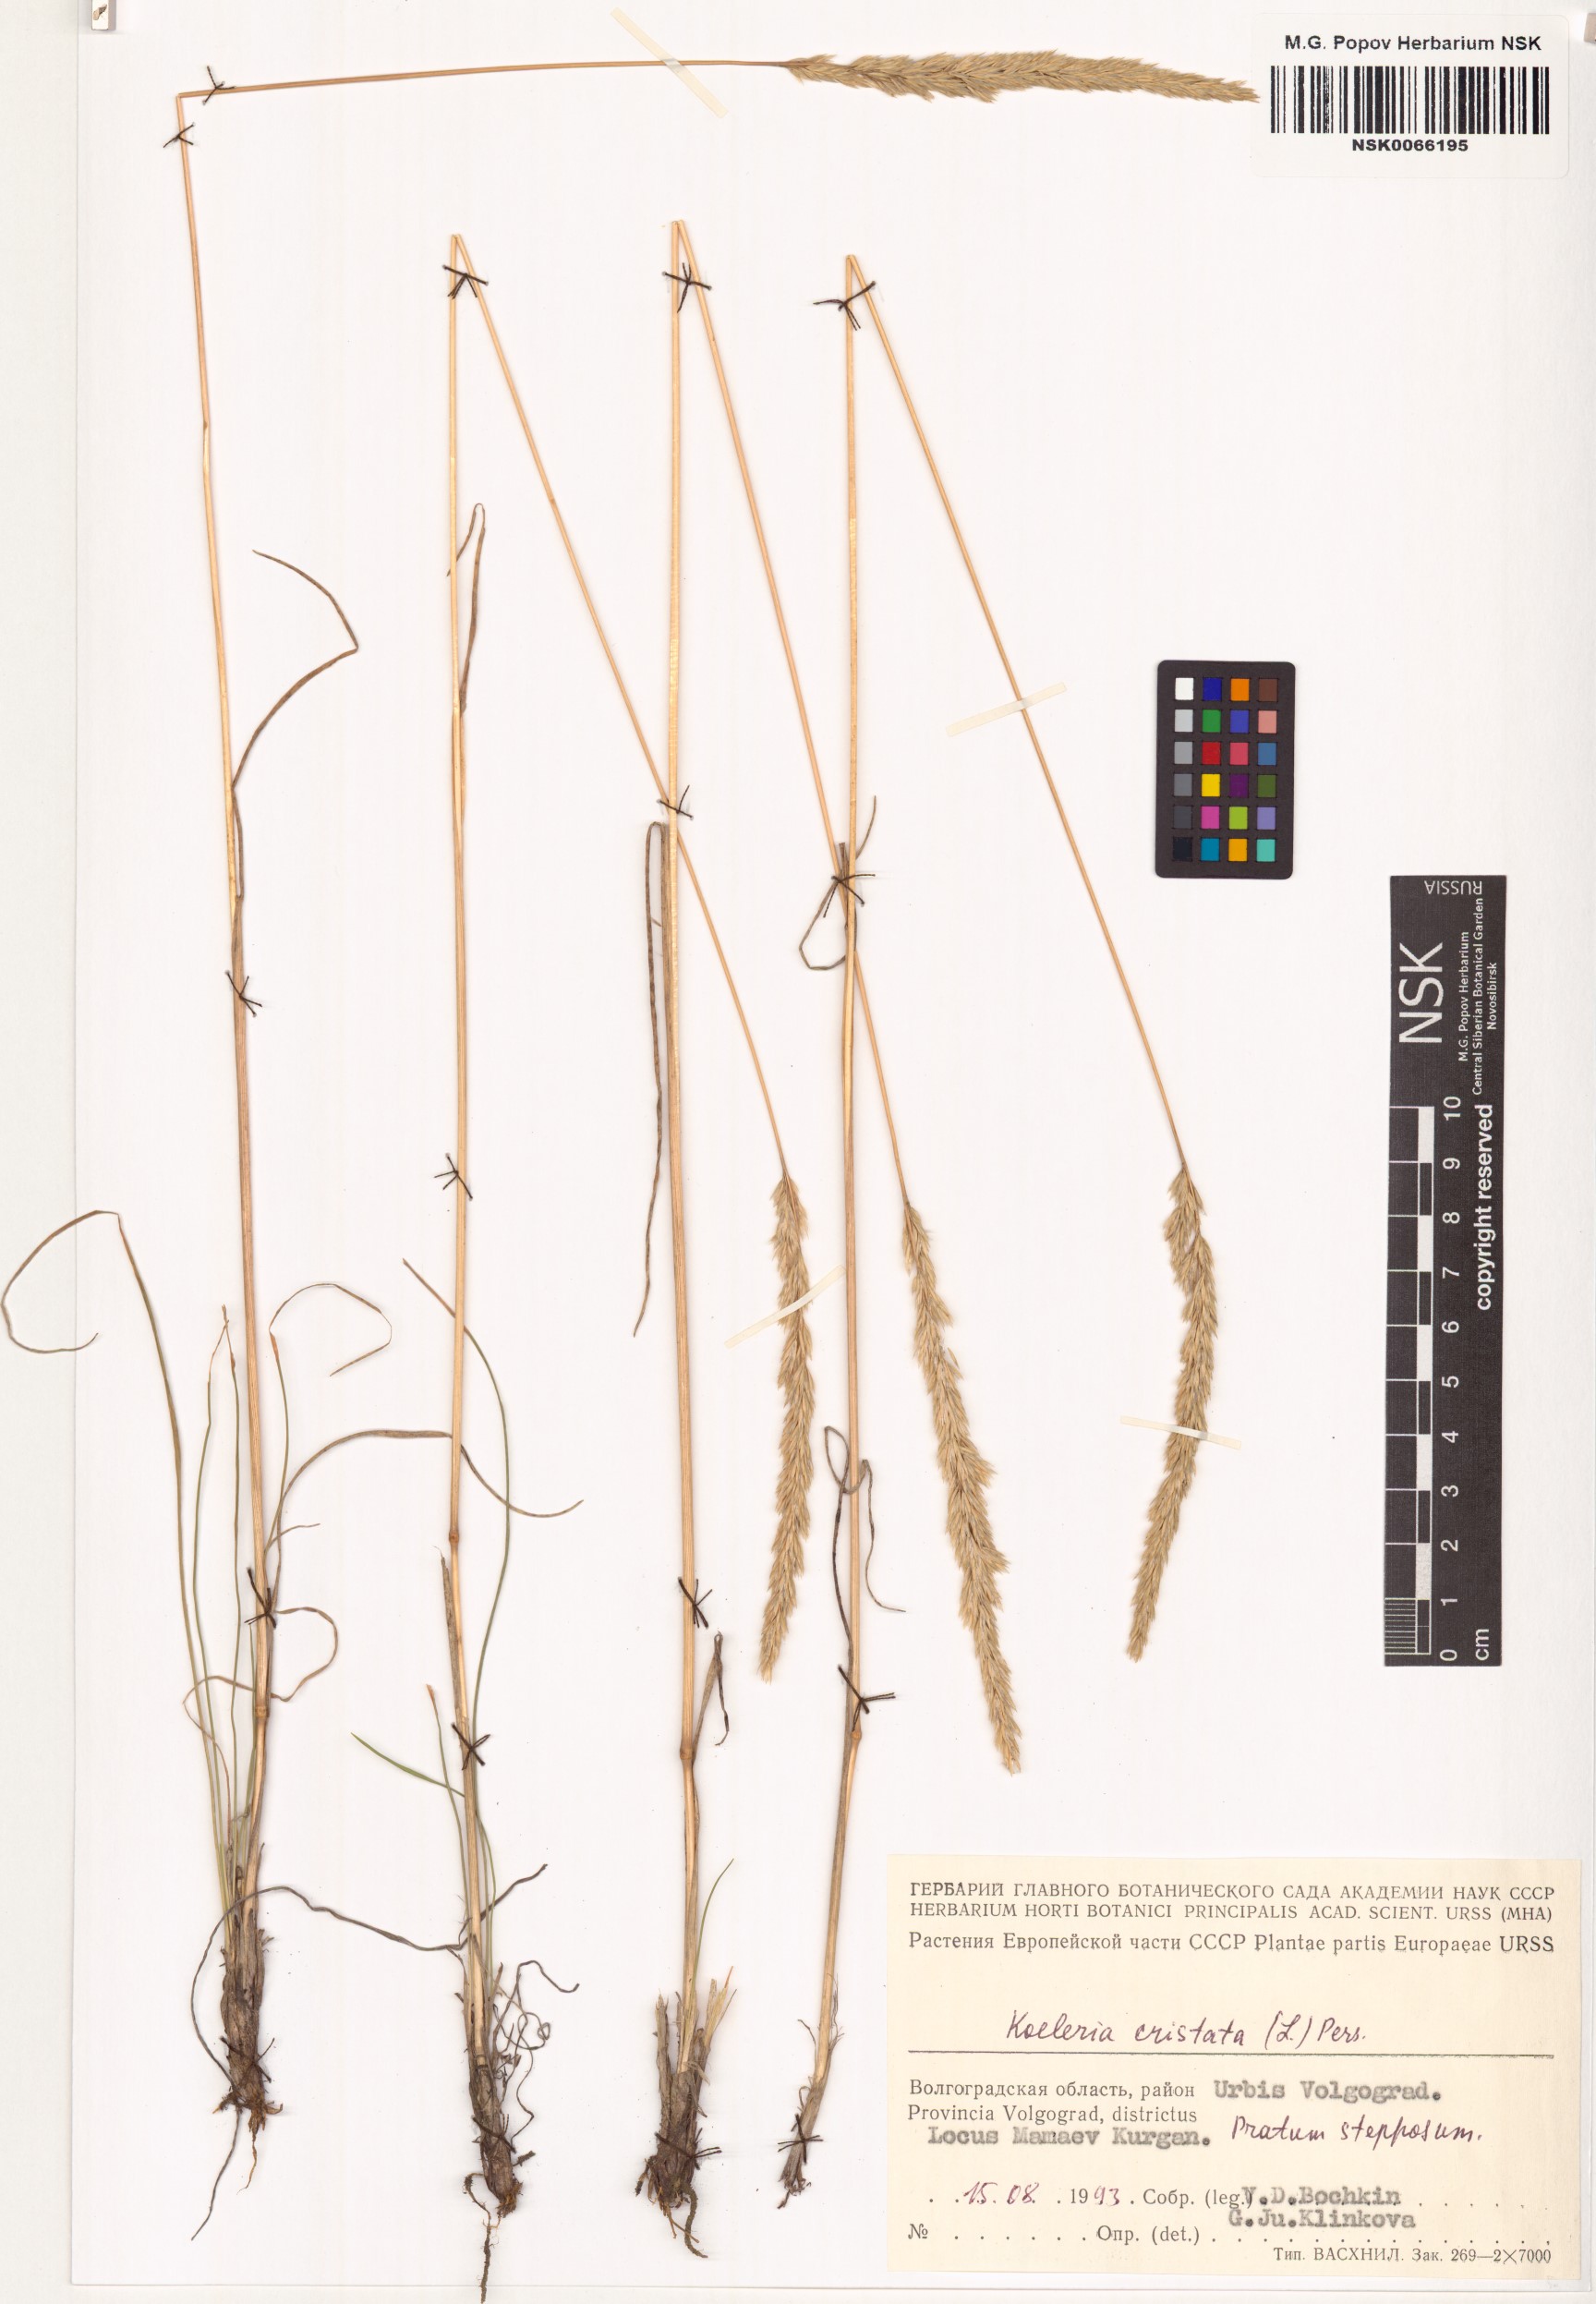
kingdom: Plantae
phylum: Tracheophyta
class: Liliopsida
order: Poales
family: Poaceae
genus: Koeleria
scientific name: Koeleria pyramidata
